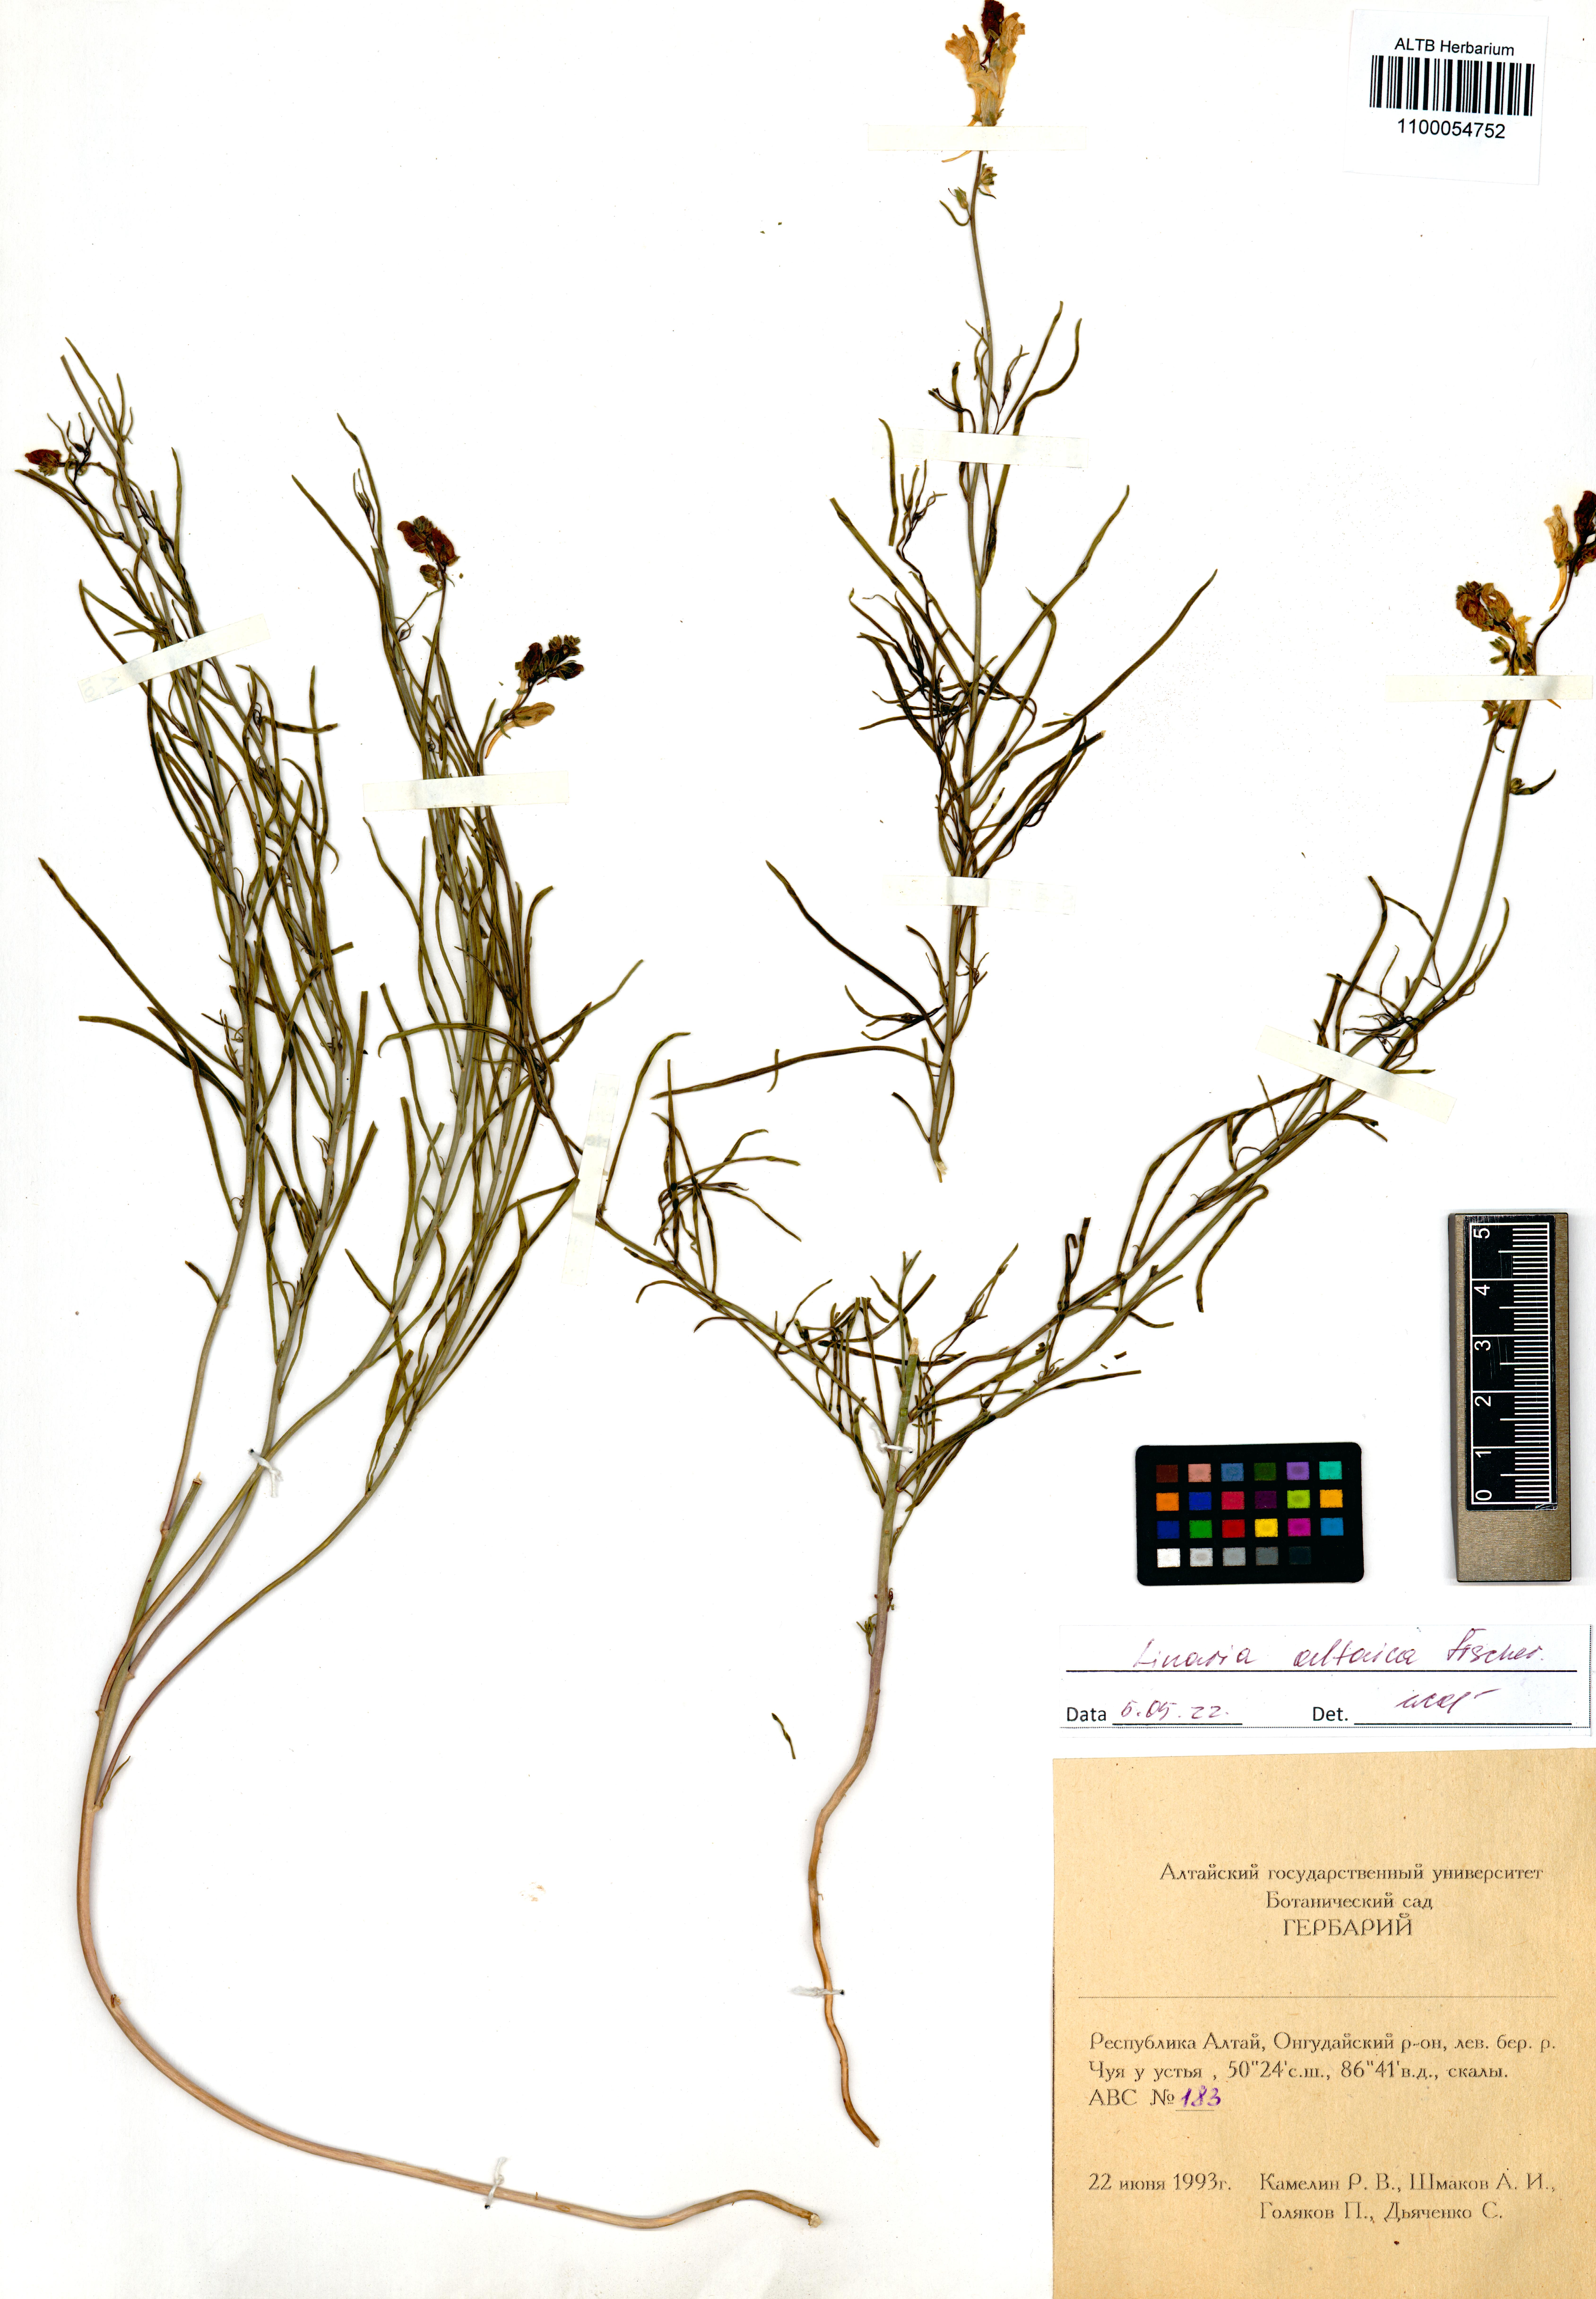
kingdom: Plantae
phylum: Tracheophyta
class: Magnoliopsida
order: Lamiales
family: Plantaginaceae
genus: Linaria
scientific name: Linaria altaica
